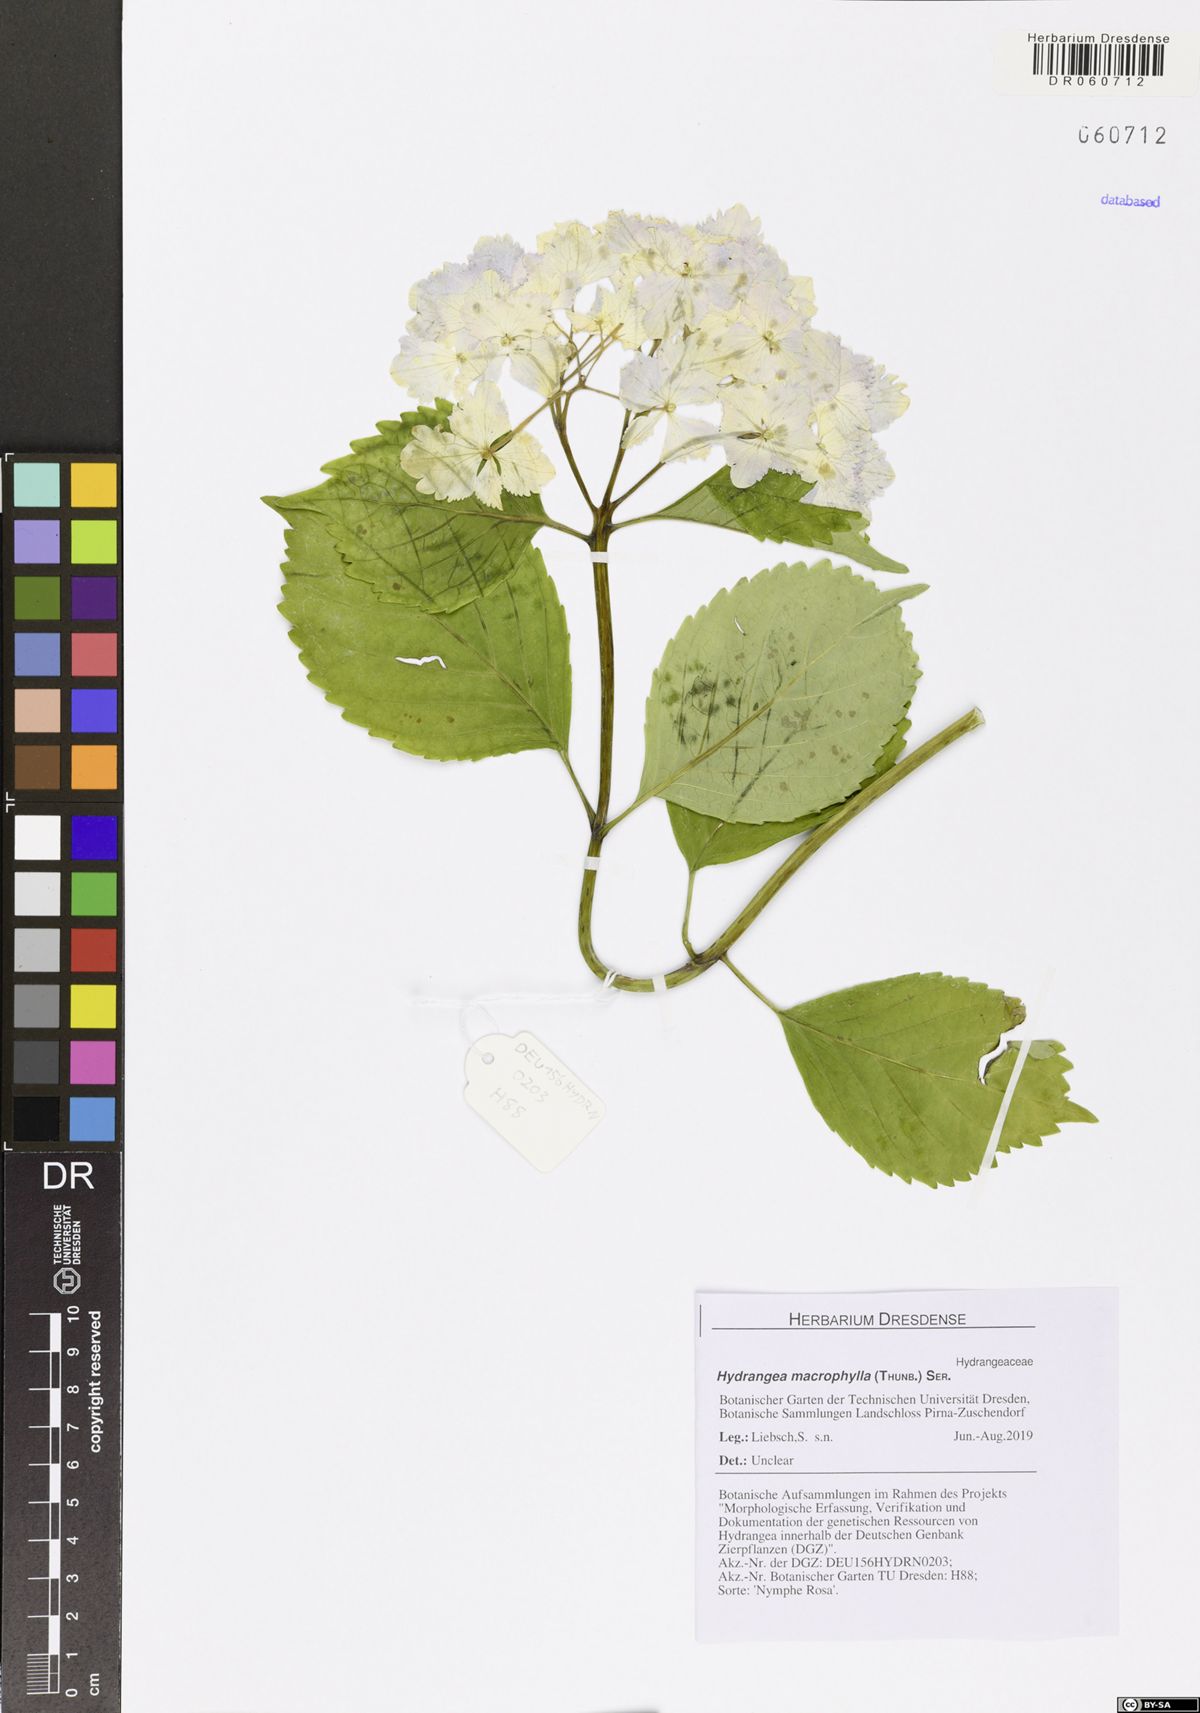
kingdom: Plantae
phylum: Tracheophyta
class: Magnoliopsida
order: Cornales
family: Hydrangeaceae
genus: Hydrangea
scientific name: Hydrangea macrophylla
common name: Hydrangea
